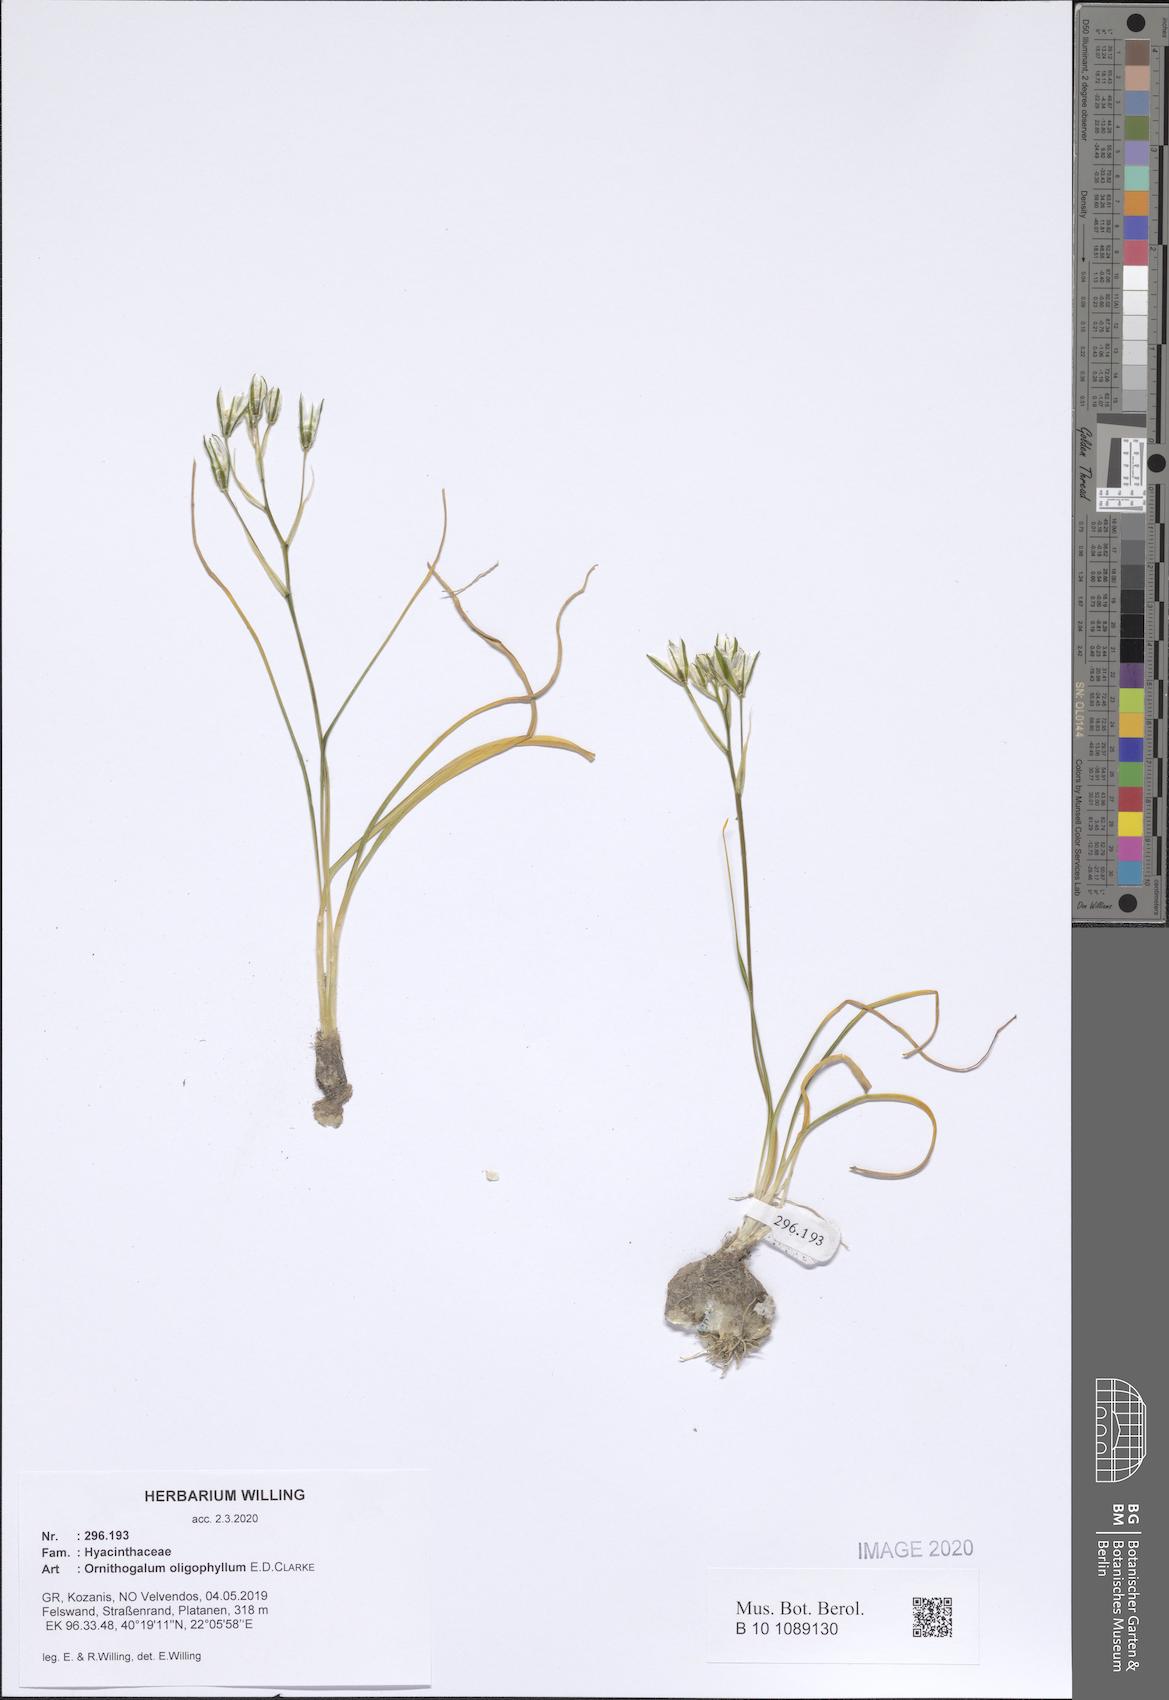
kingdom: Plantae
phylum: Tracheophyta
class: Liliopsida
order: Asparagales
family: Asparagaceae
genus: Ornithogalum
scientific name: Ornithogalum oligophyllum
